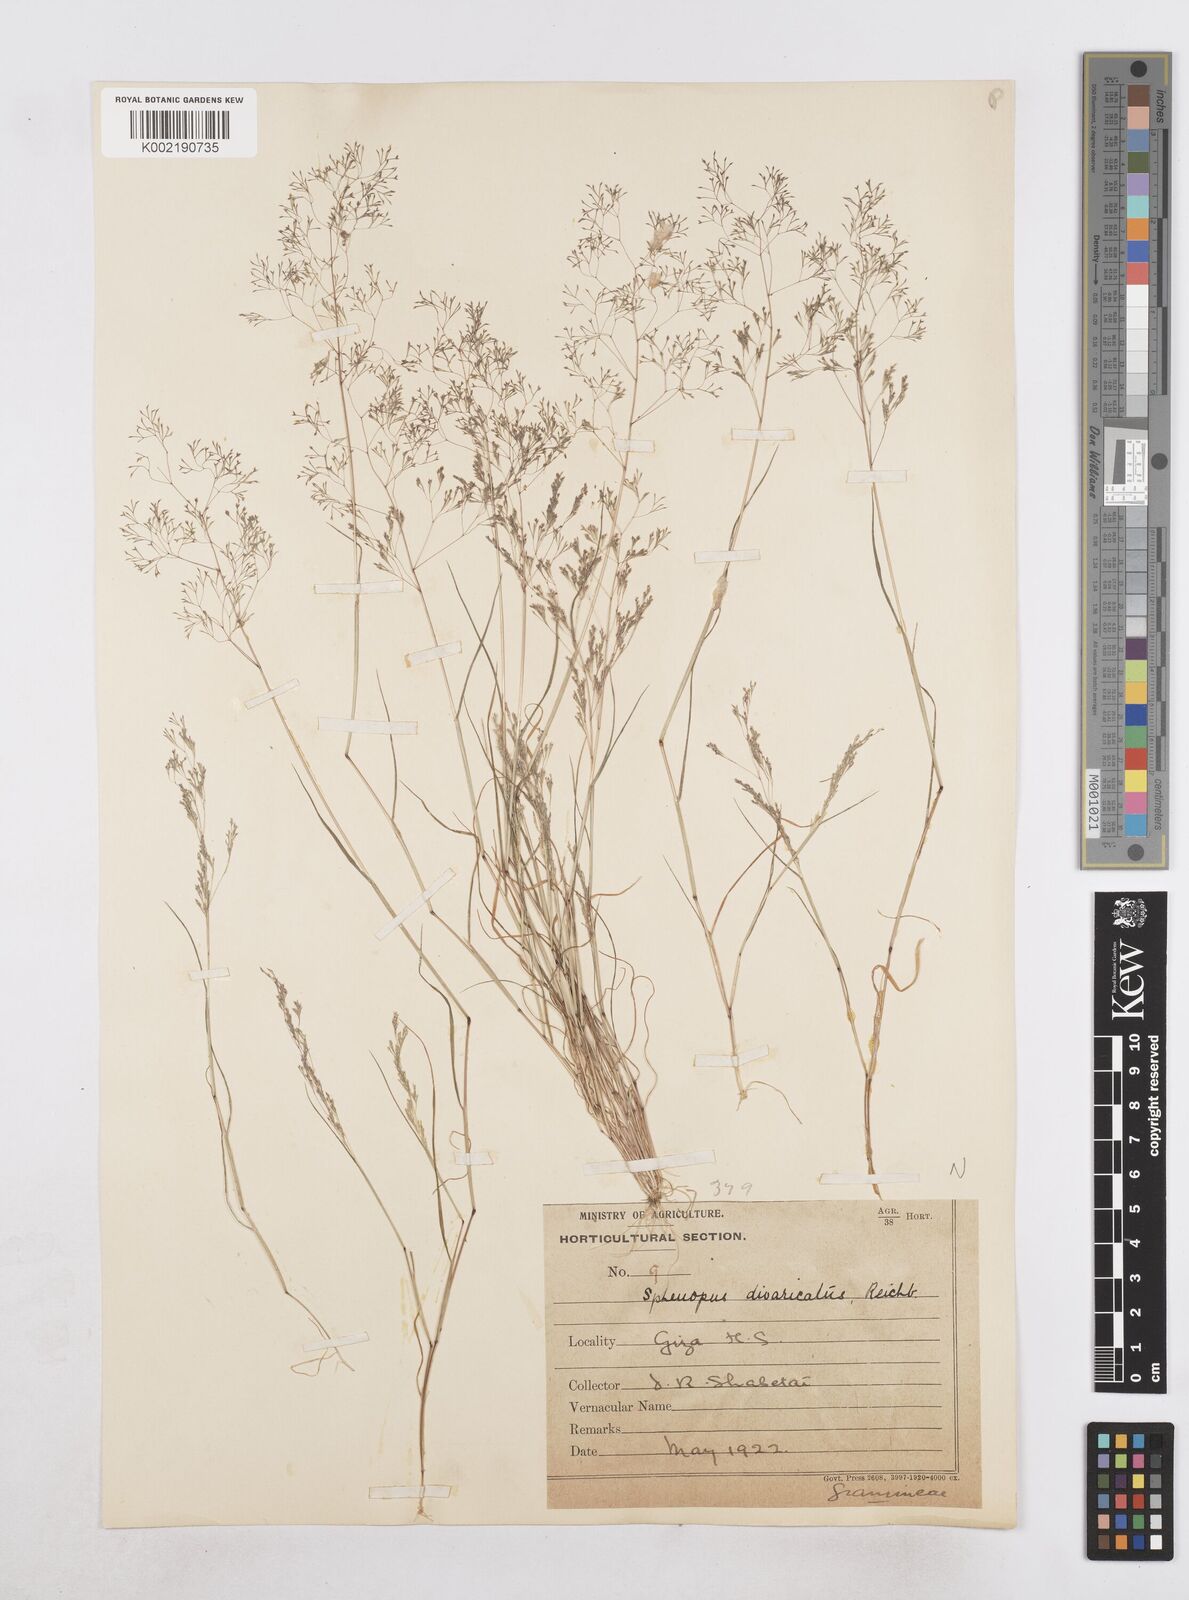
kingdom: Plantae
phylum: Tracheophyta
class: Liliopsida
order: Poales
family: Poaceae
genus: Sphenopus
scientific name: Sphenopus divaricatus
